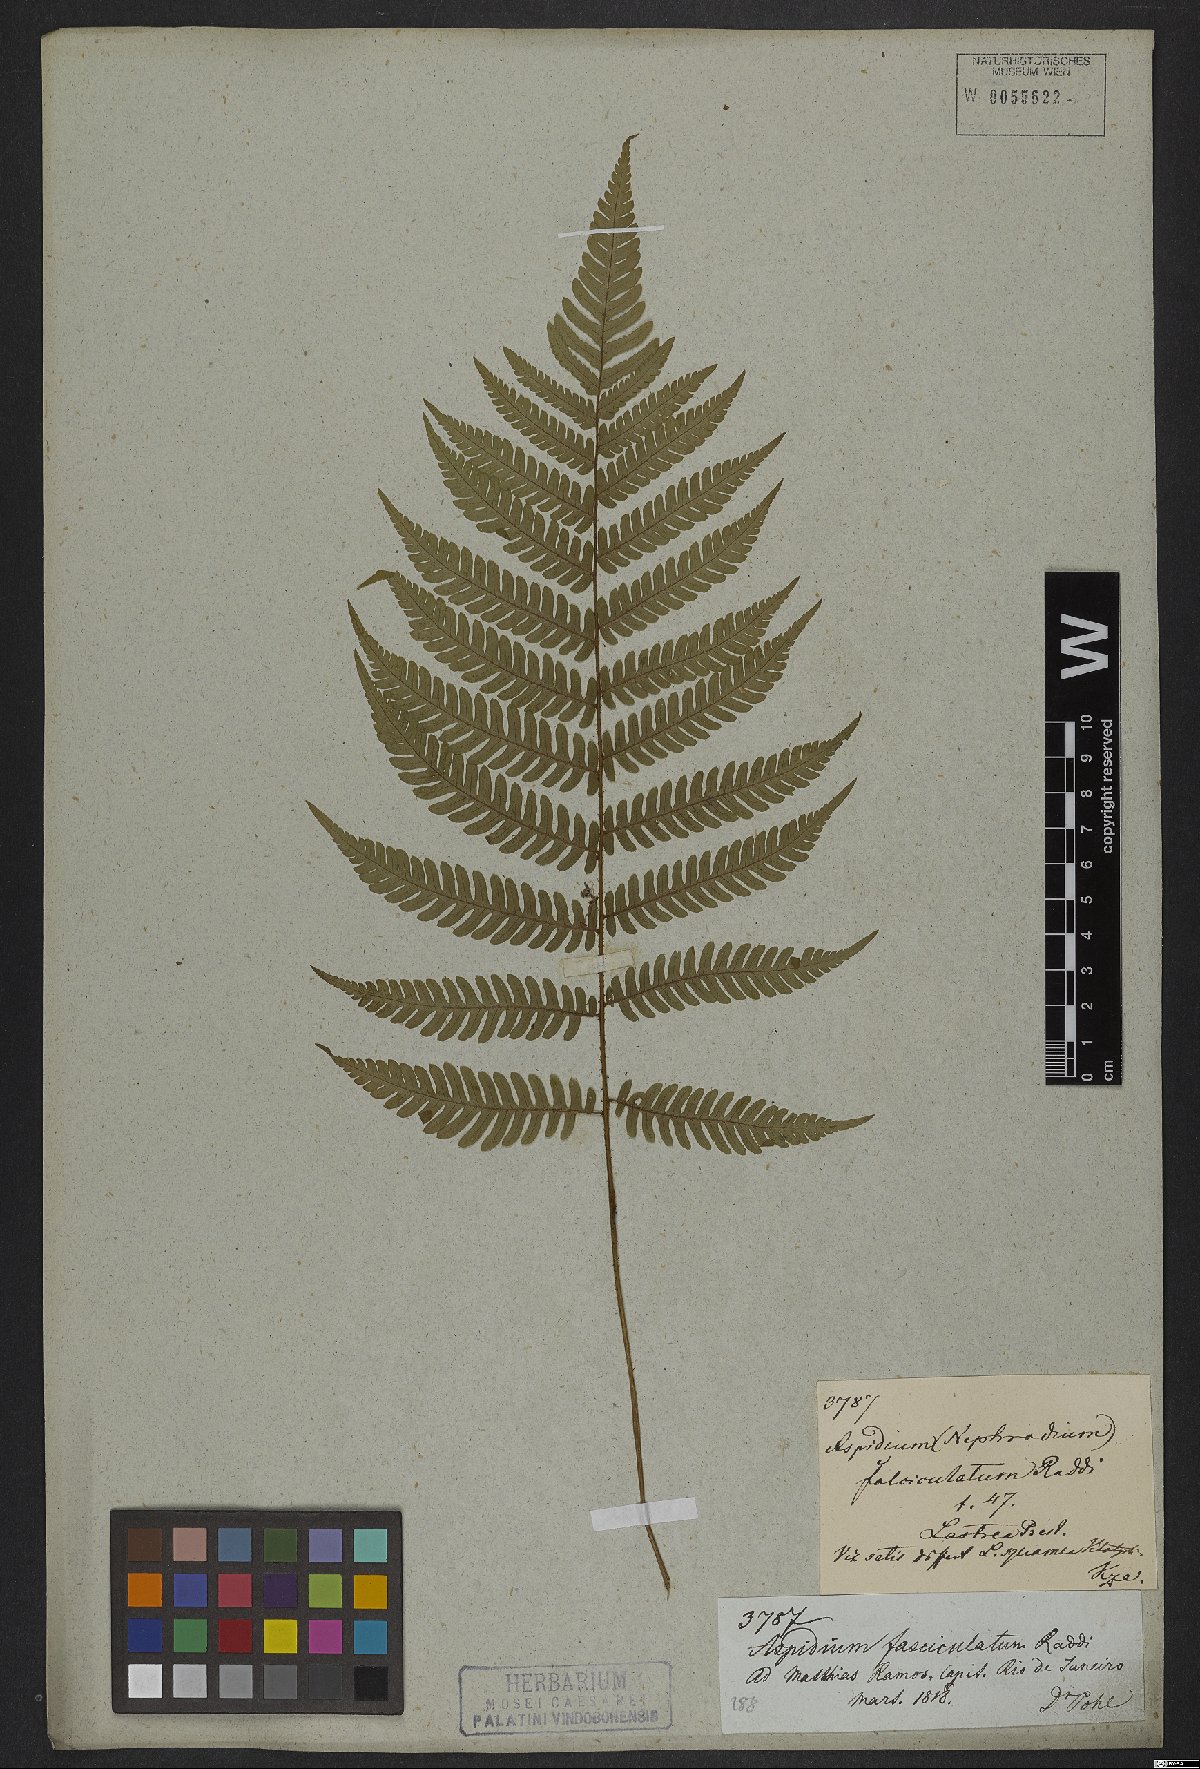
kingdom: Plantae
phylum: Tracheophyta
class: Polypodiopsida
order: Polypodiales
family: Dryopteridaceae
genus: Ctenitis
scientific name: Ctenitis falciculata
